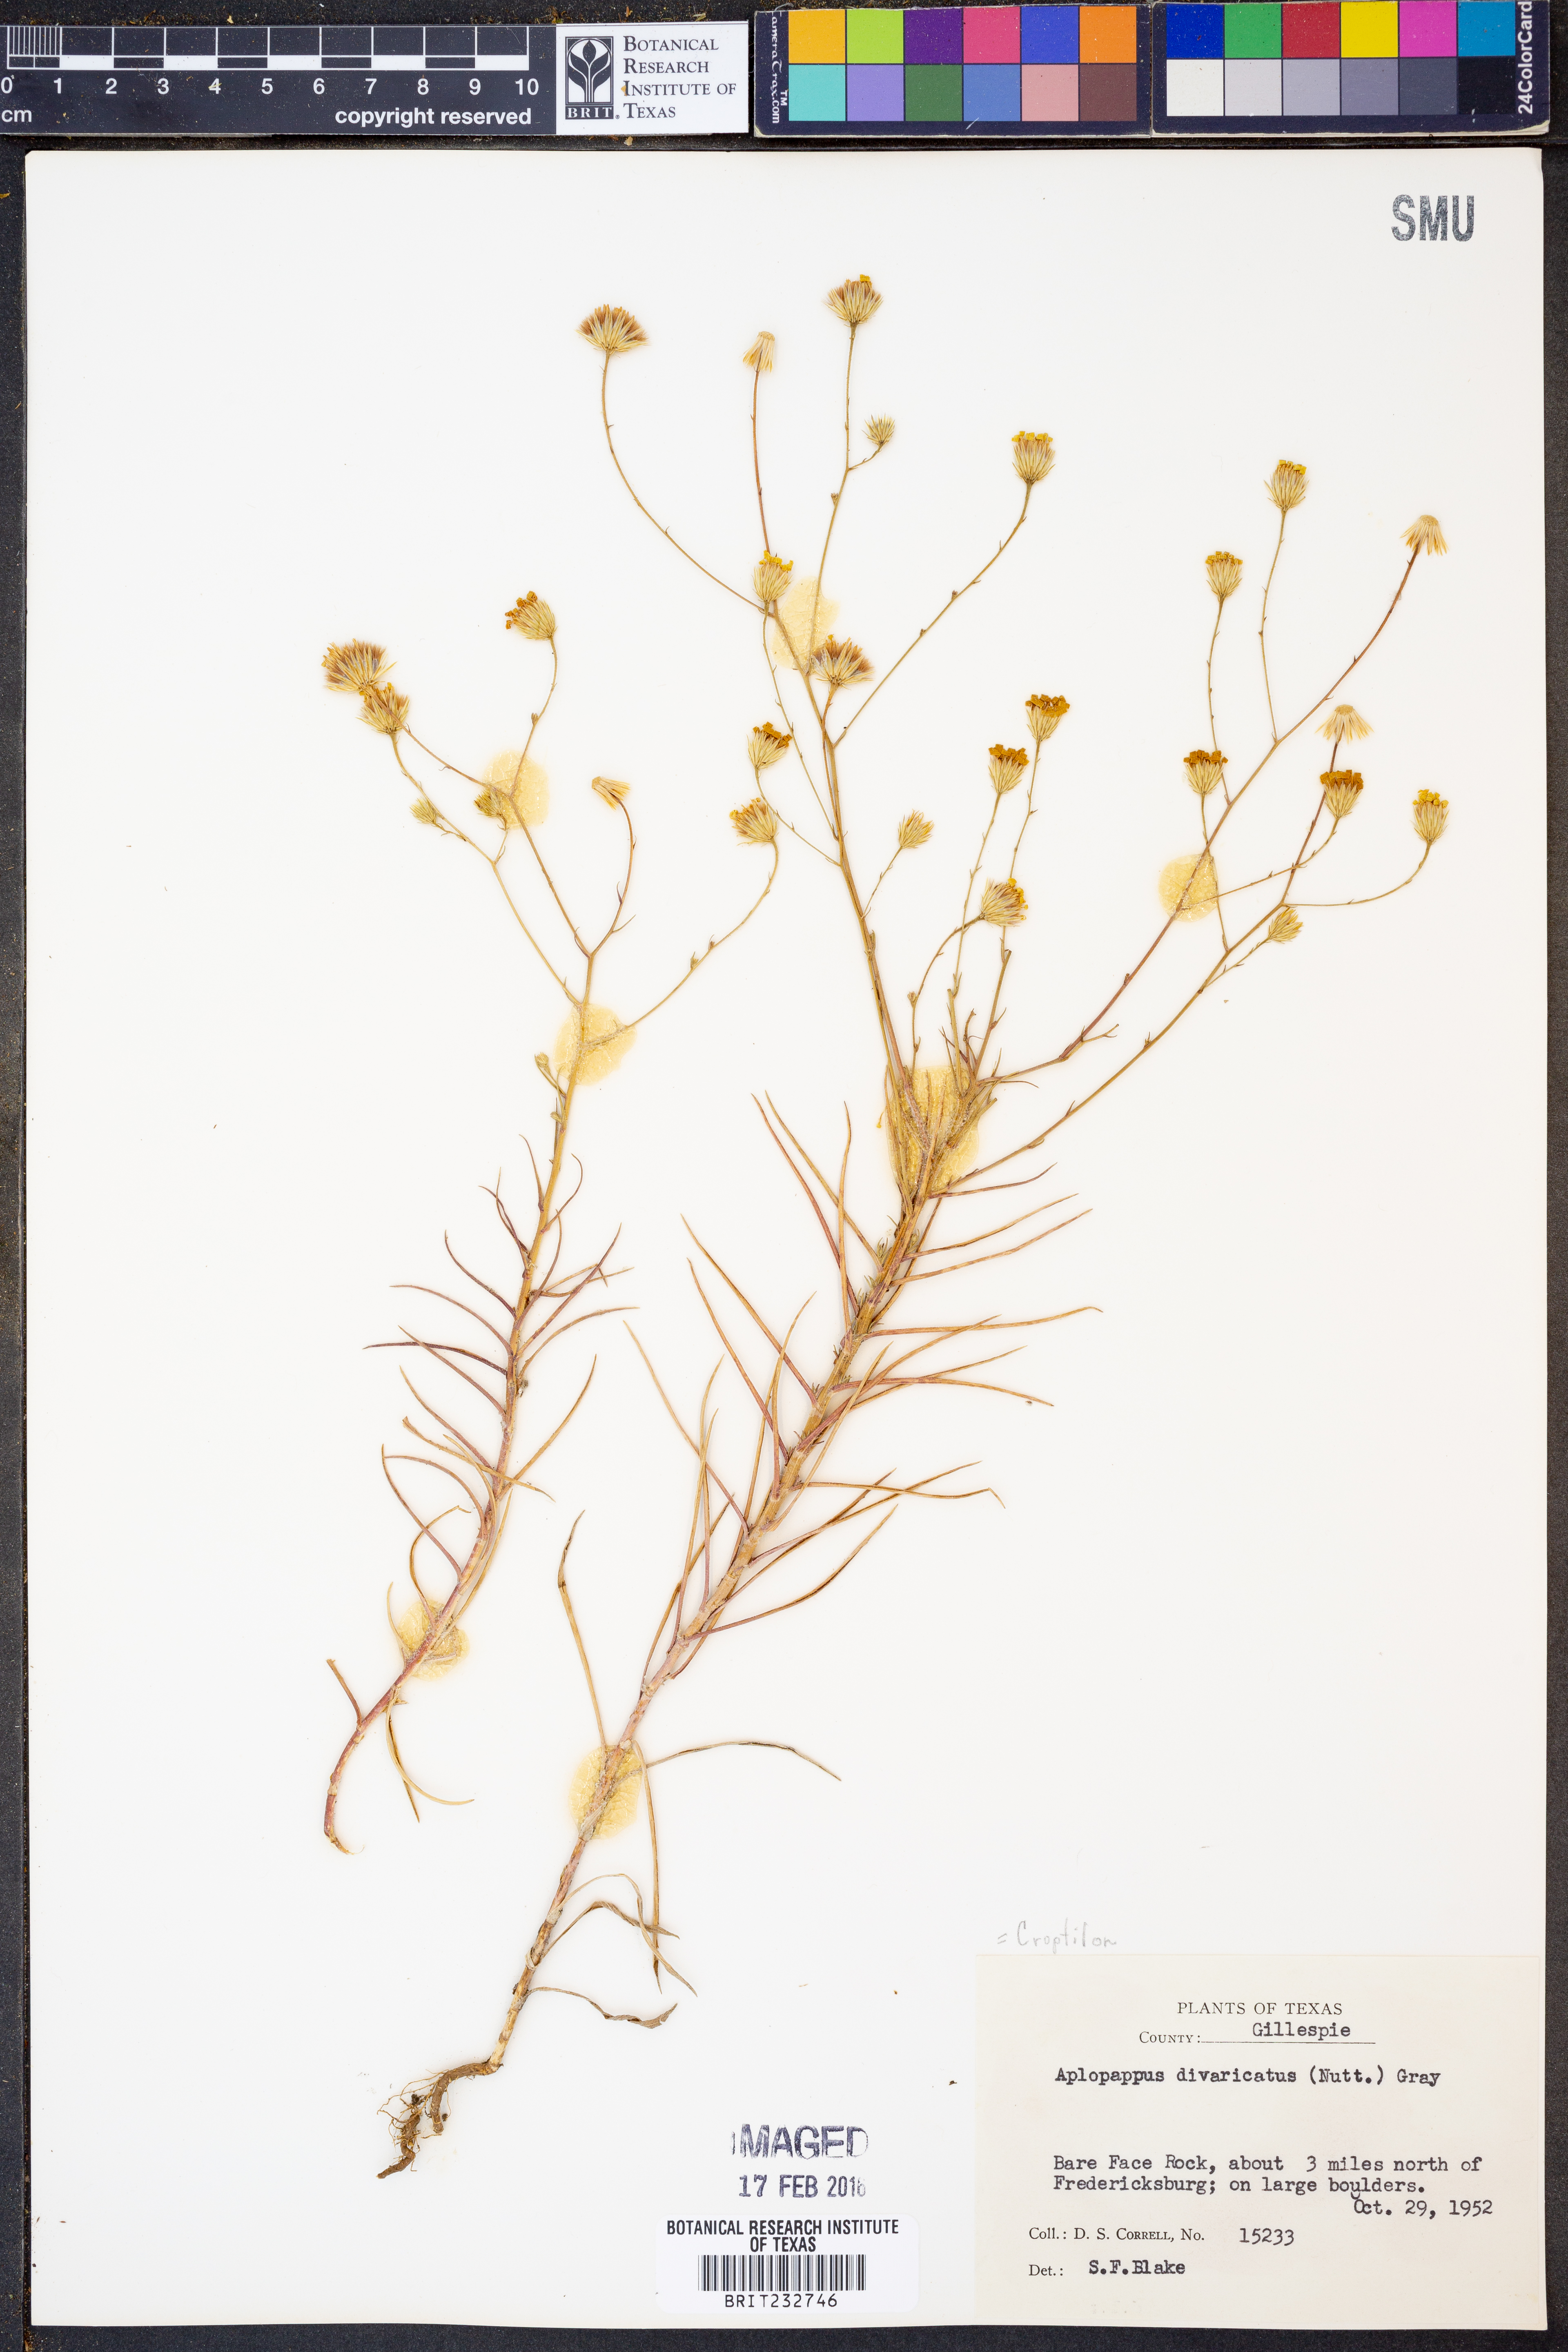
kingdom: Plantae
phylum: Tracheophyta
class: Magnoliopsida
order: Asterales
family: Asteraceae
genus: Croptilon
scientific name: Croptilon divaricatum
